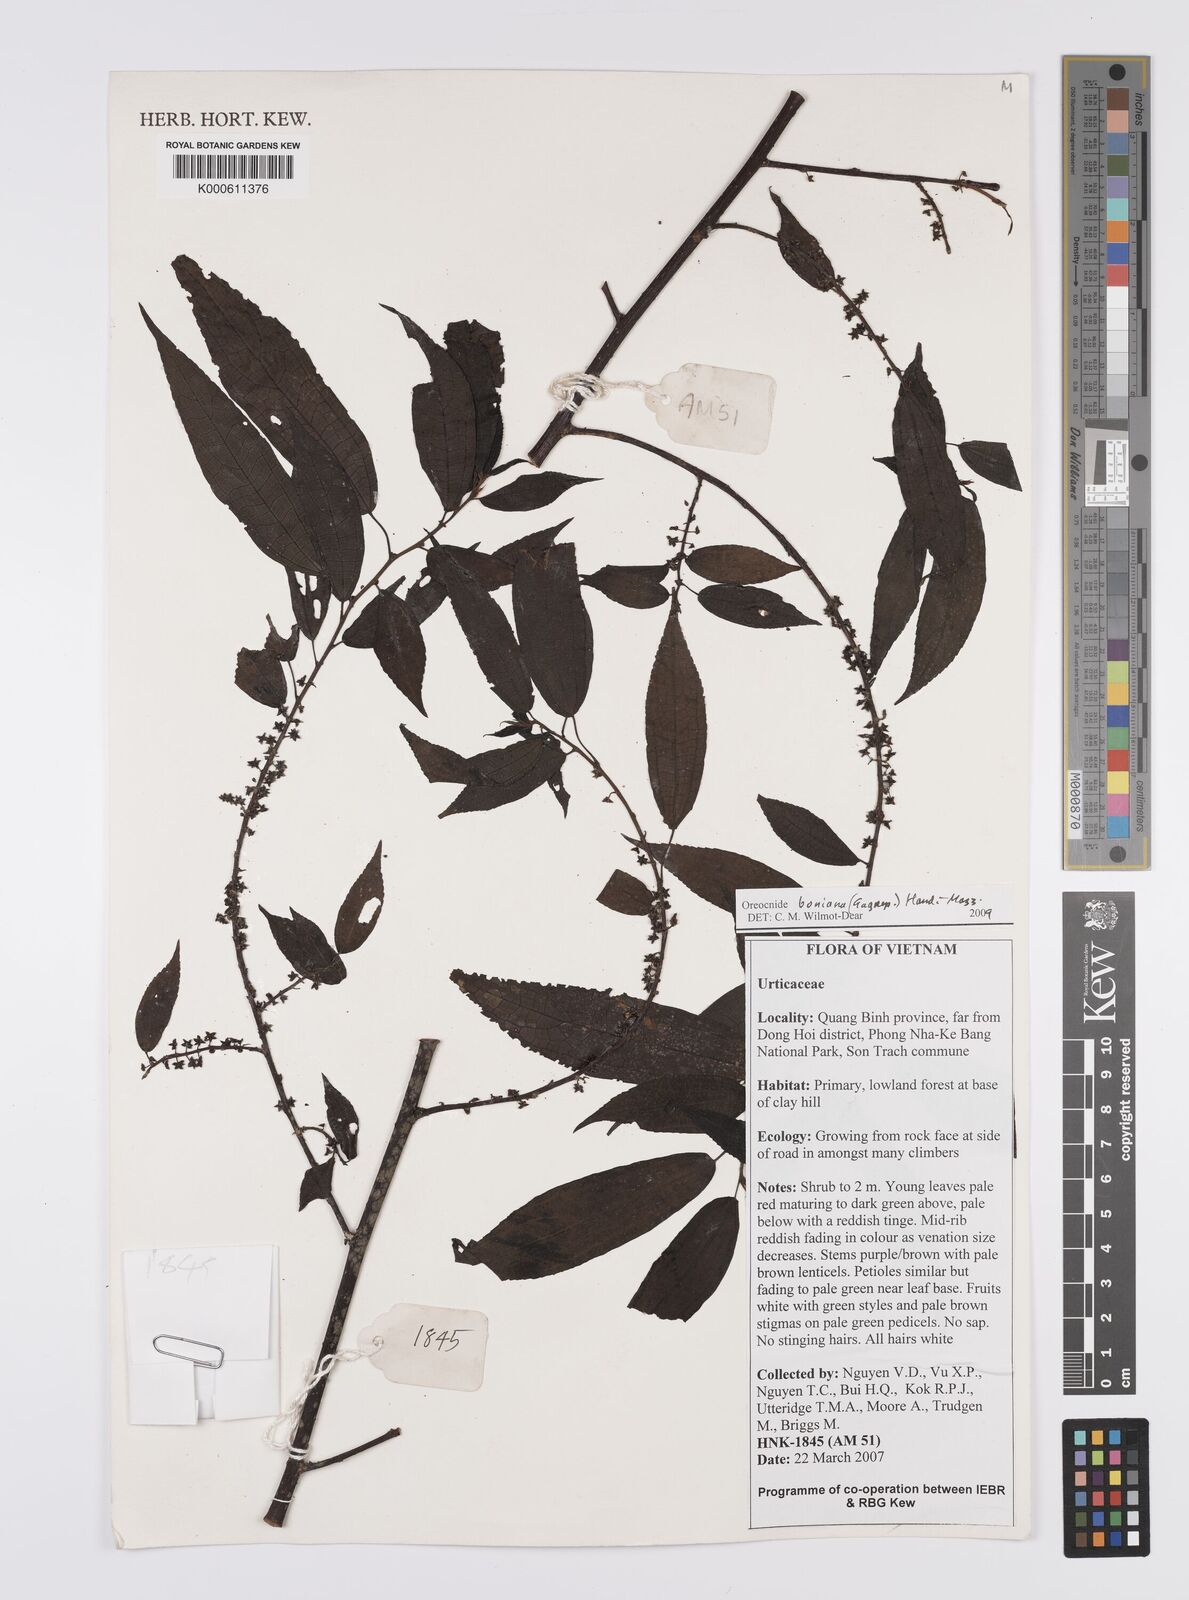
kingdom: Plantae
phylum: Tracheophyta
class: Magnoliopsida
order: Rosales
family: Urticaceae
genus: Oreocnide
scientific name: Oreocnide boniana
